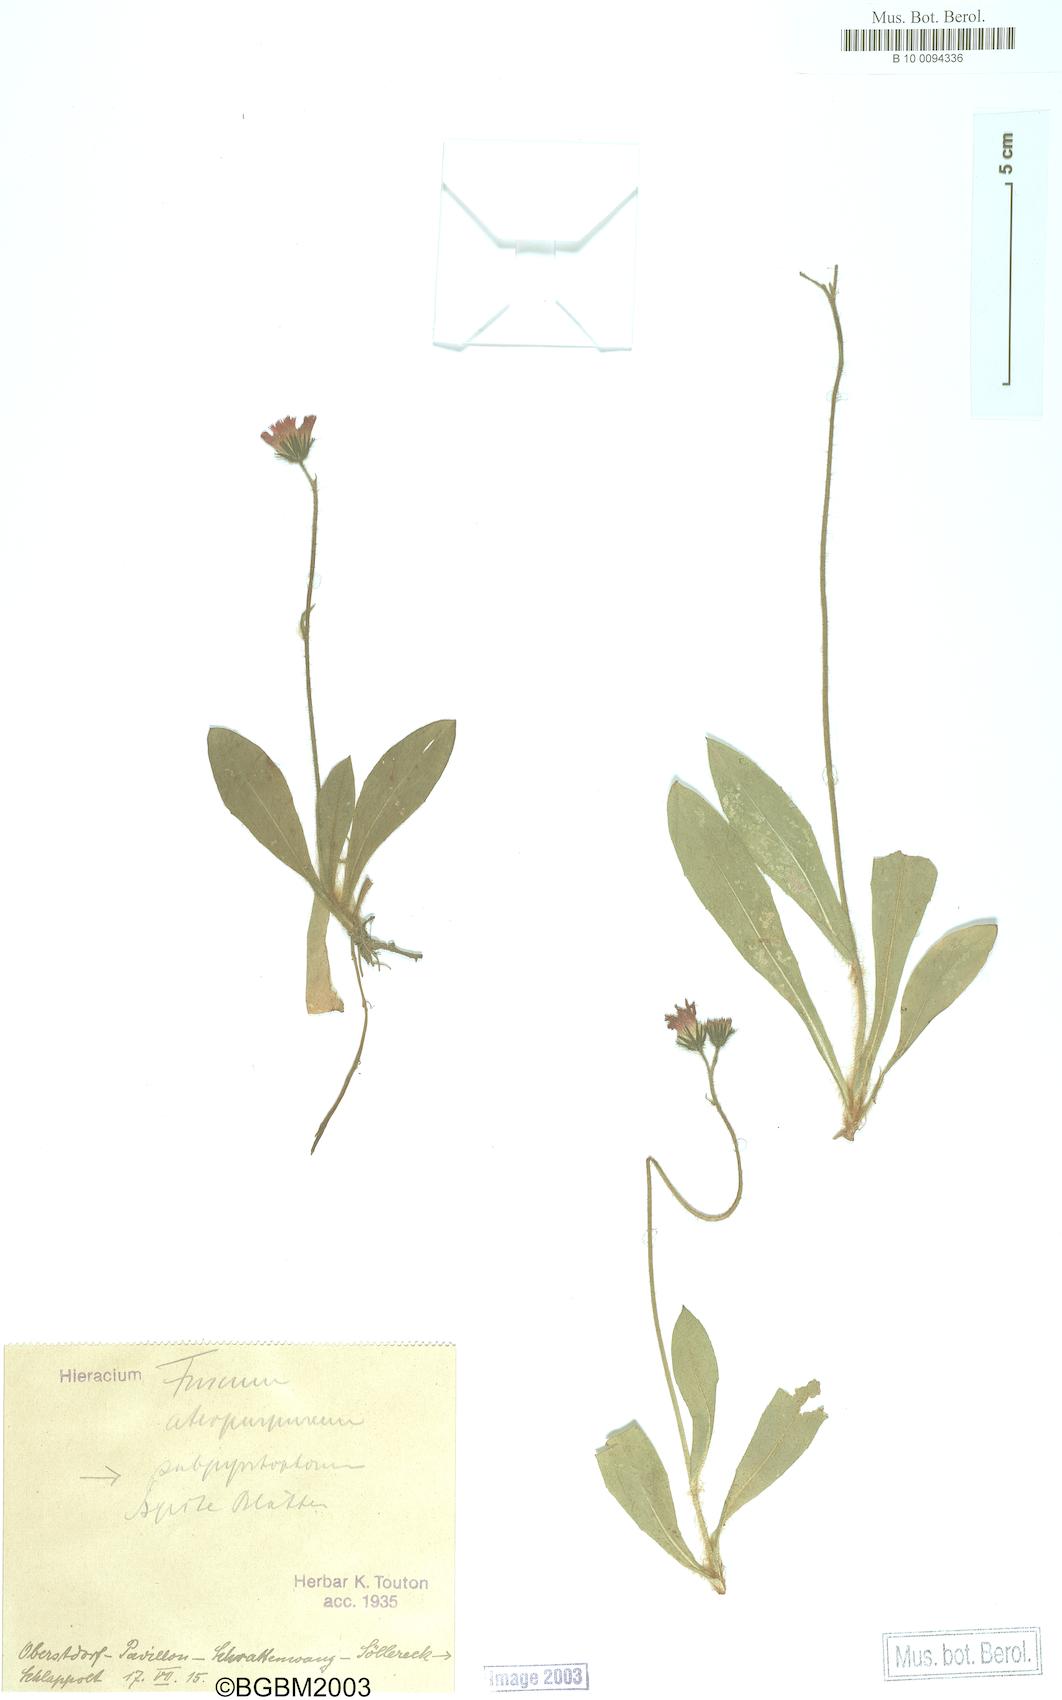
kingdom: Plantae
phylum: Tracheophyta
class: Magnoliopsida
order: Asterales
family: Asteraceae
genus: Hieracium
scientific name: Hieracium fuscum
